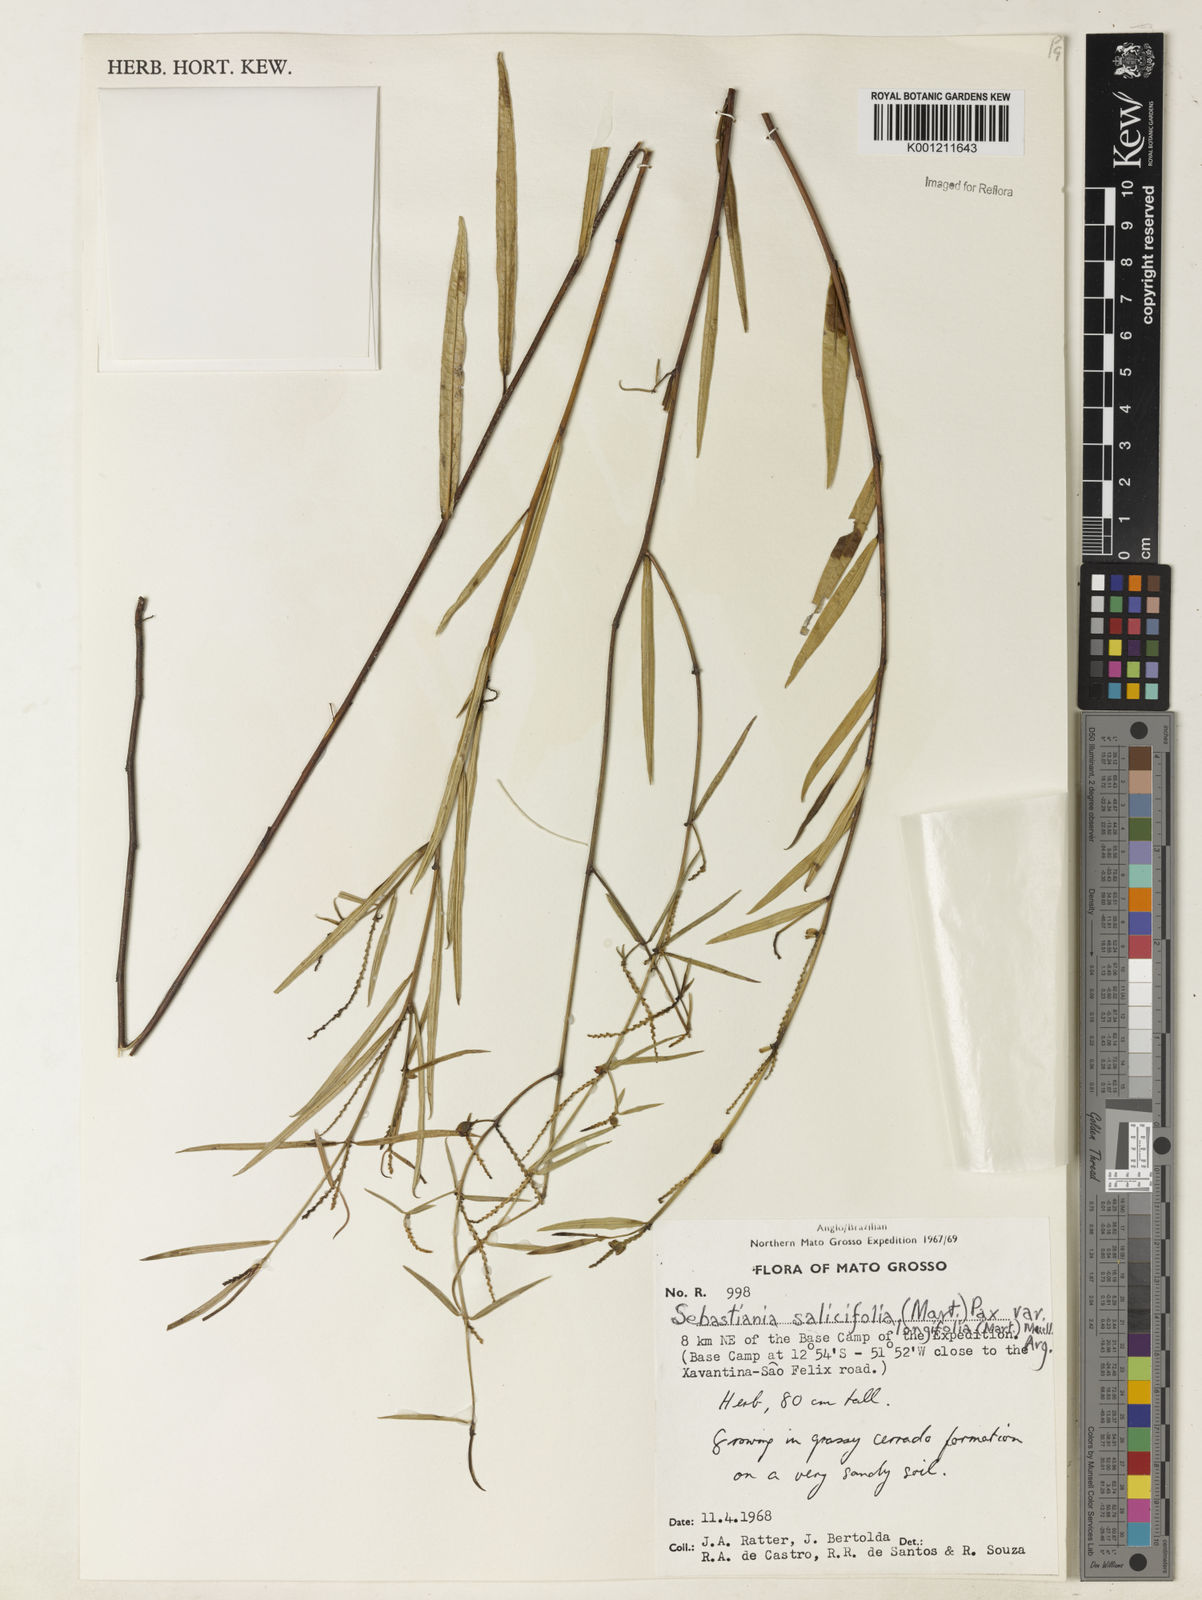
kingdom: Plantae
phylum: Tracheophyta
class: Magnoliopsida
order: Malpighiales
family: Euphorbiaceae
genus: Microstachys
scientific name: Microstachys
